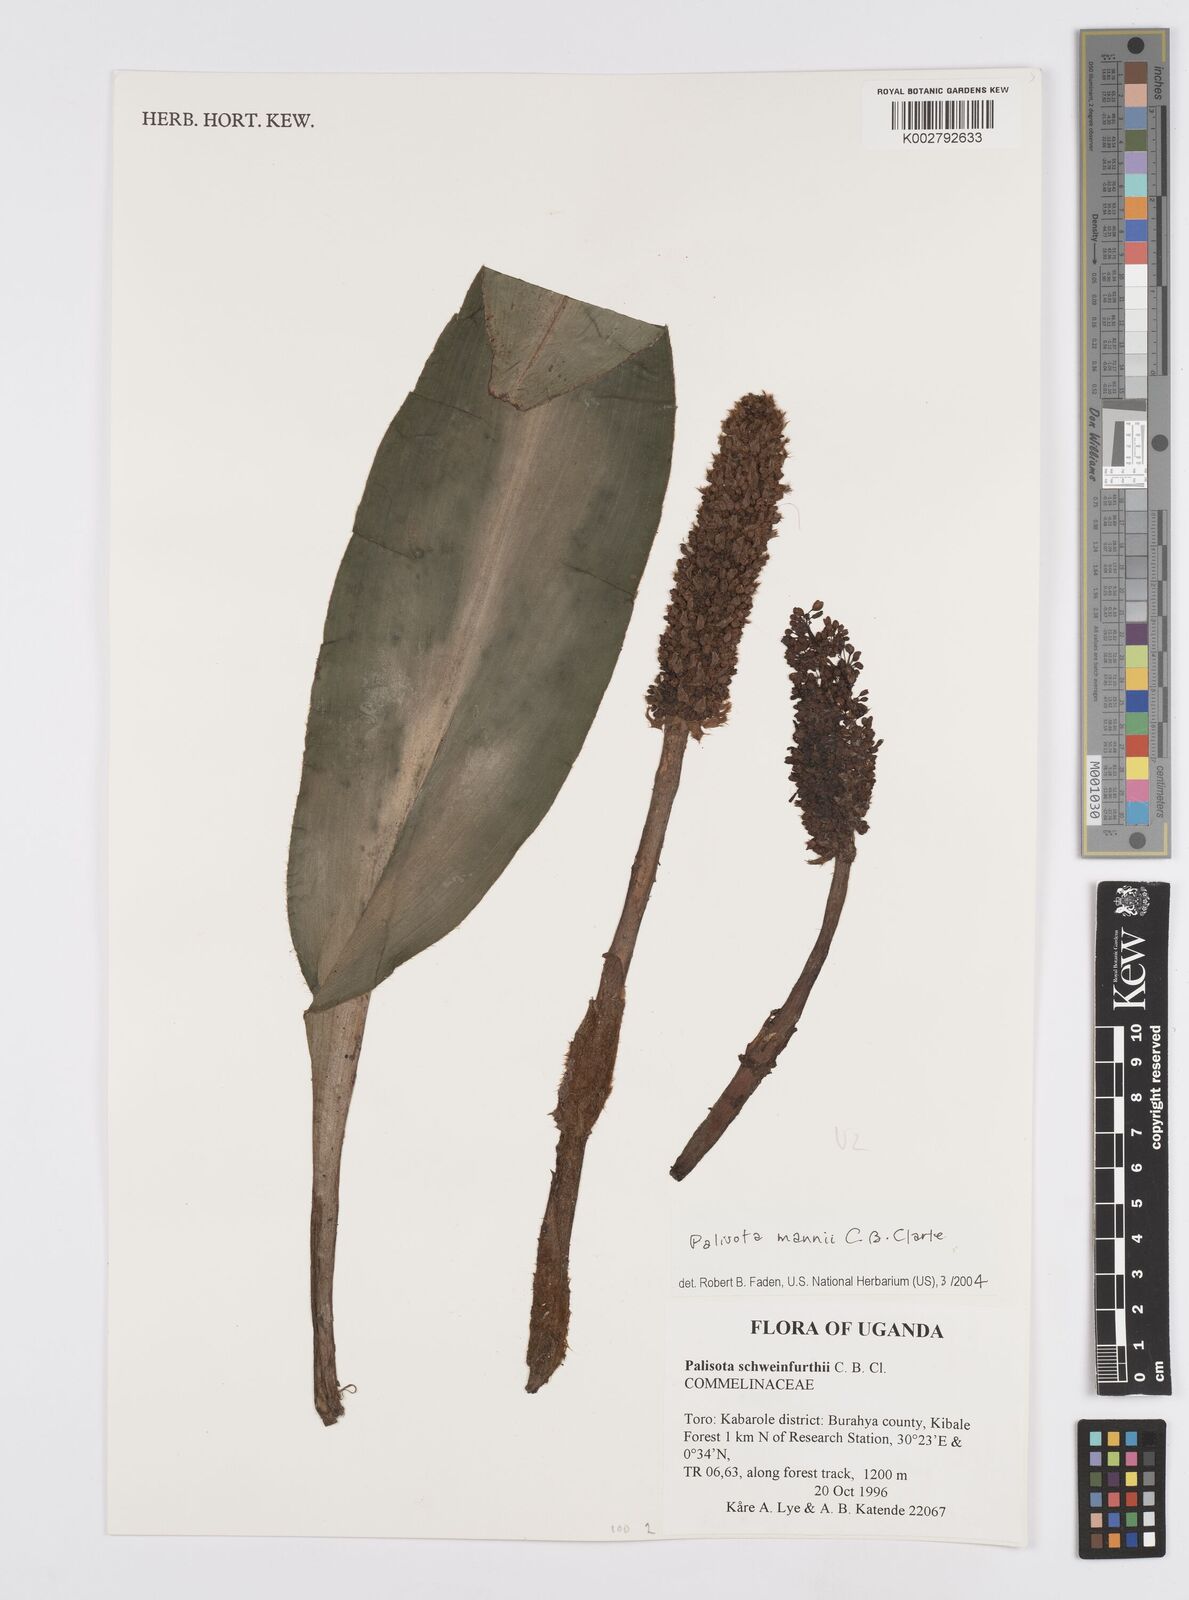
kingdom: Plantae
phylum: Tracheophyta
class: Liliopsida
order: Commelinales
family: Commelinaceae
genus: Palisota
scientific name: Palisota mannii
